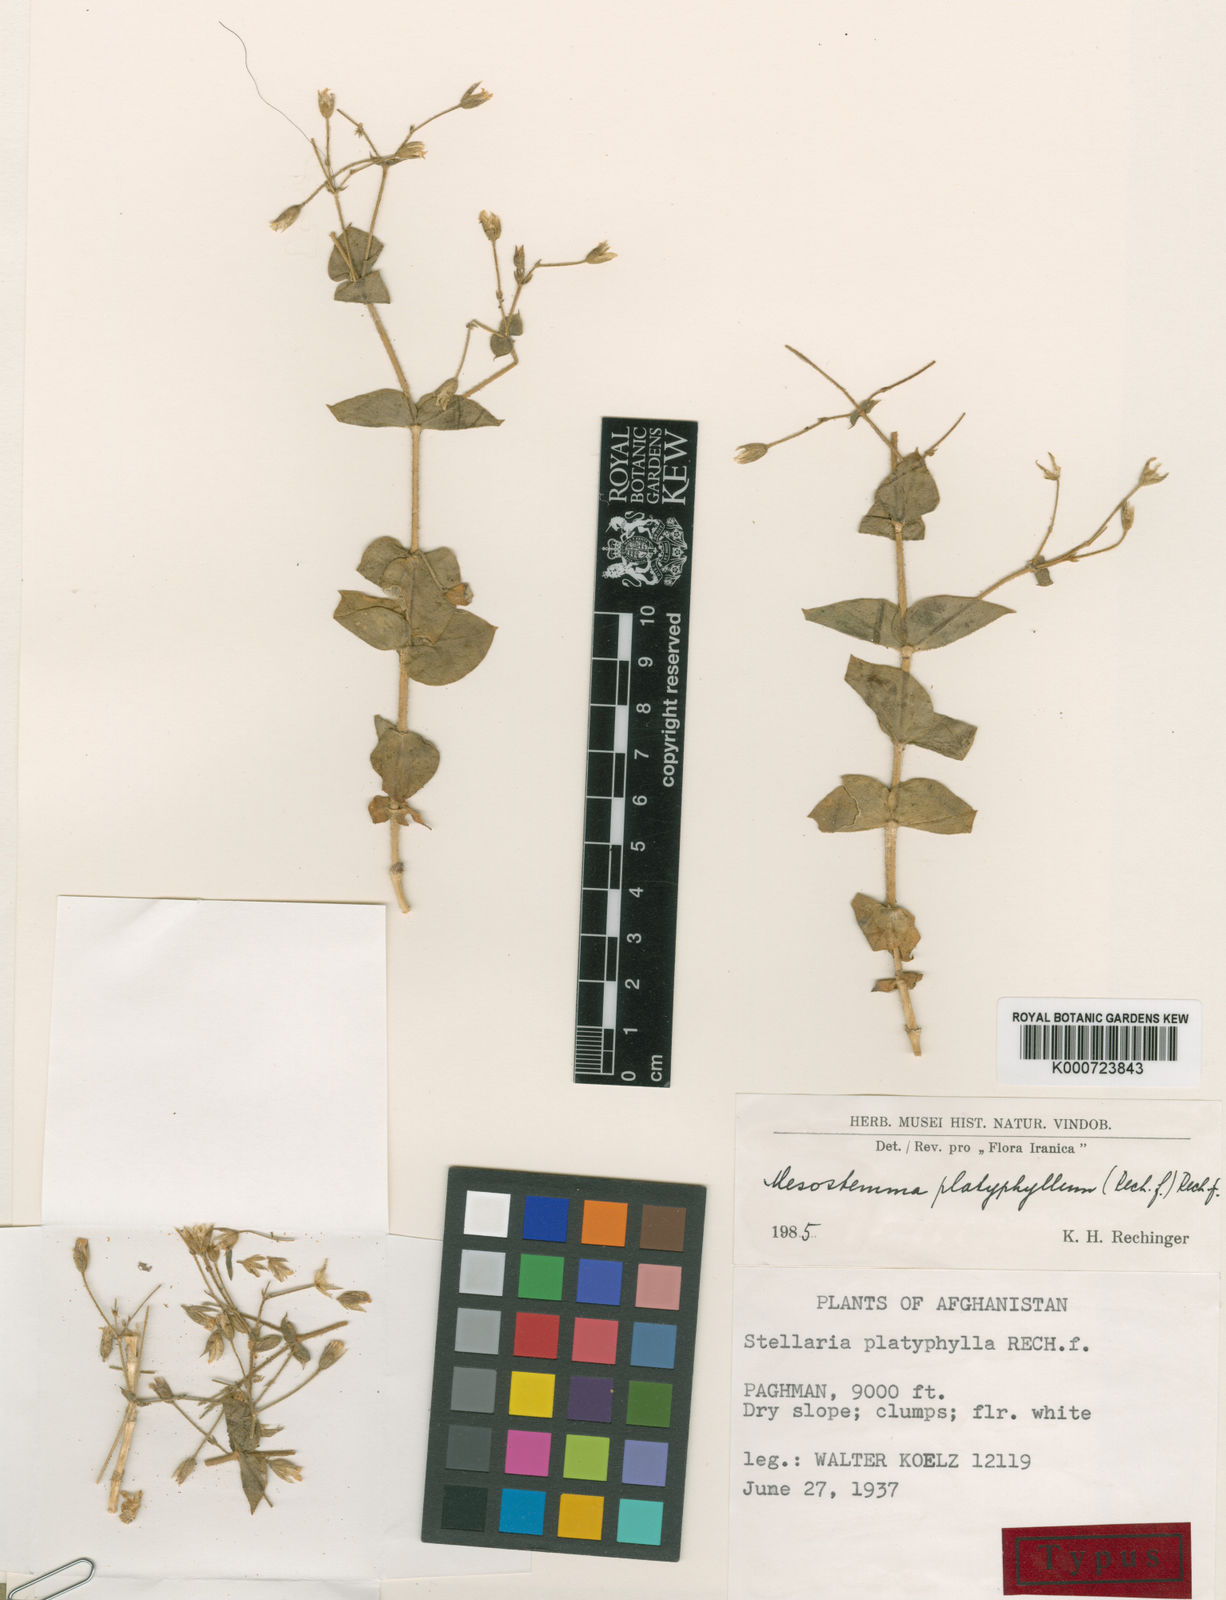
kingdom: Plantae
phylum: Tracheophyta
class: Magnoliopsida
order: Caryophyllales
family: Caryophyllaceae
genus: Mesostemma
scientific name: Mesostemma platyphyllum
